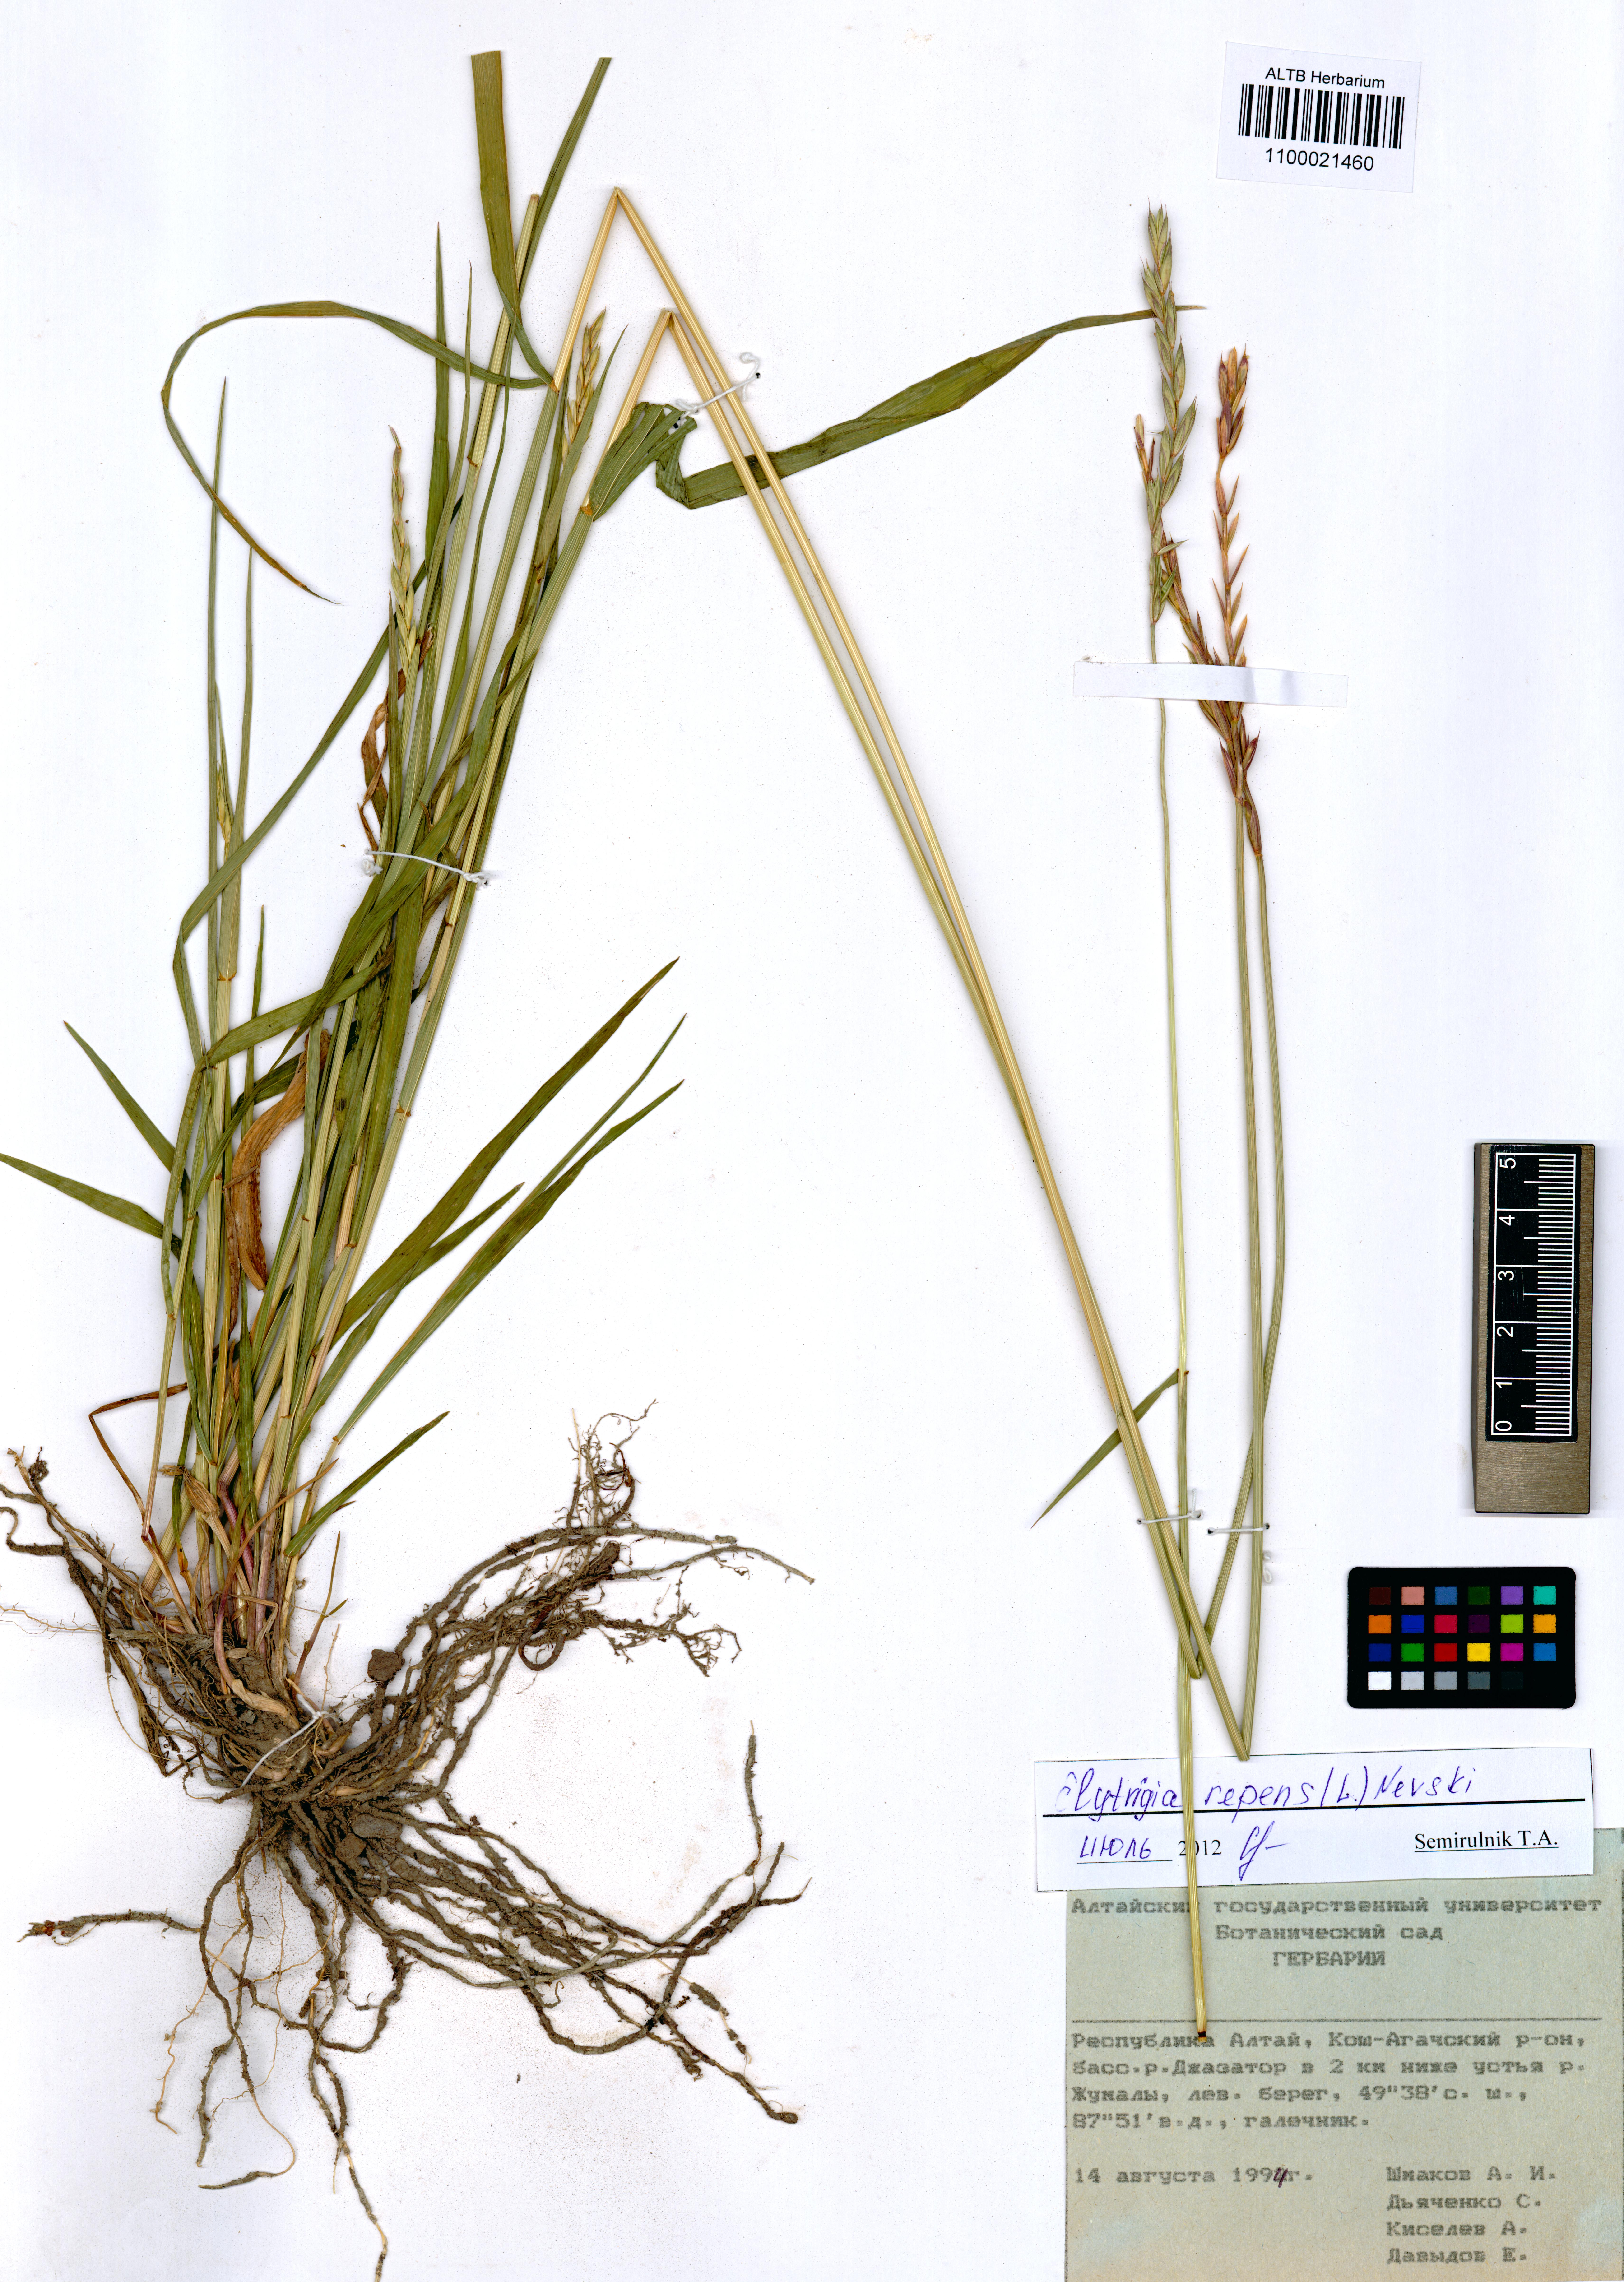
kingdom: Plantae
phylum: Tracheophyta
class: Liliopsida
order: Poales
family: Poaceae
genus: Elymus
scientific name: Elymus repens
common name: Quackgrass
